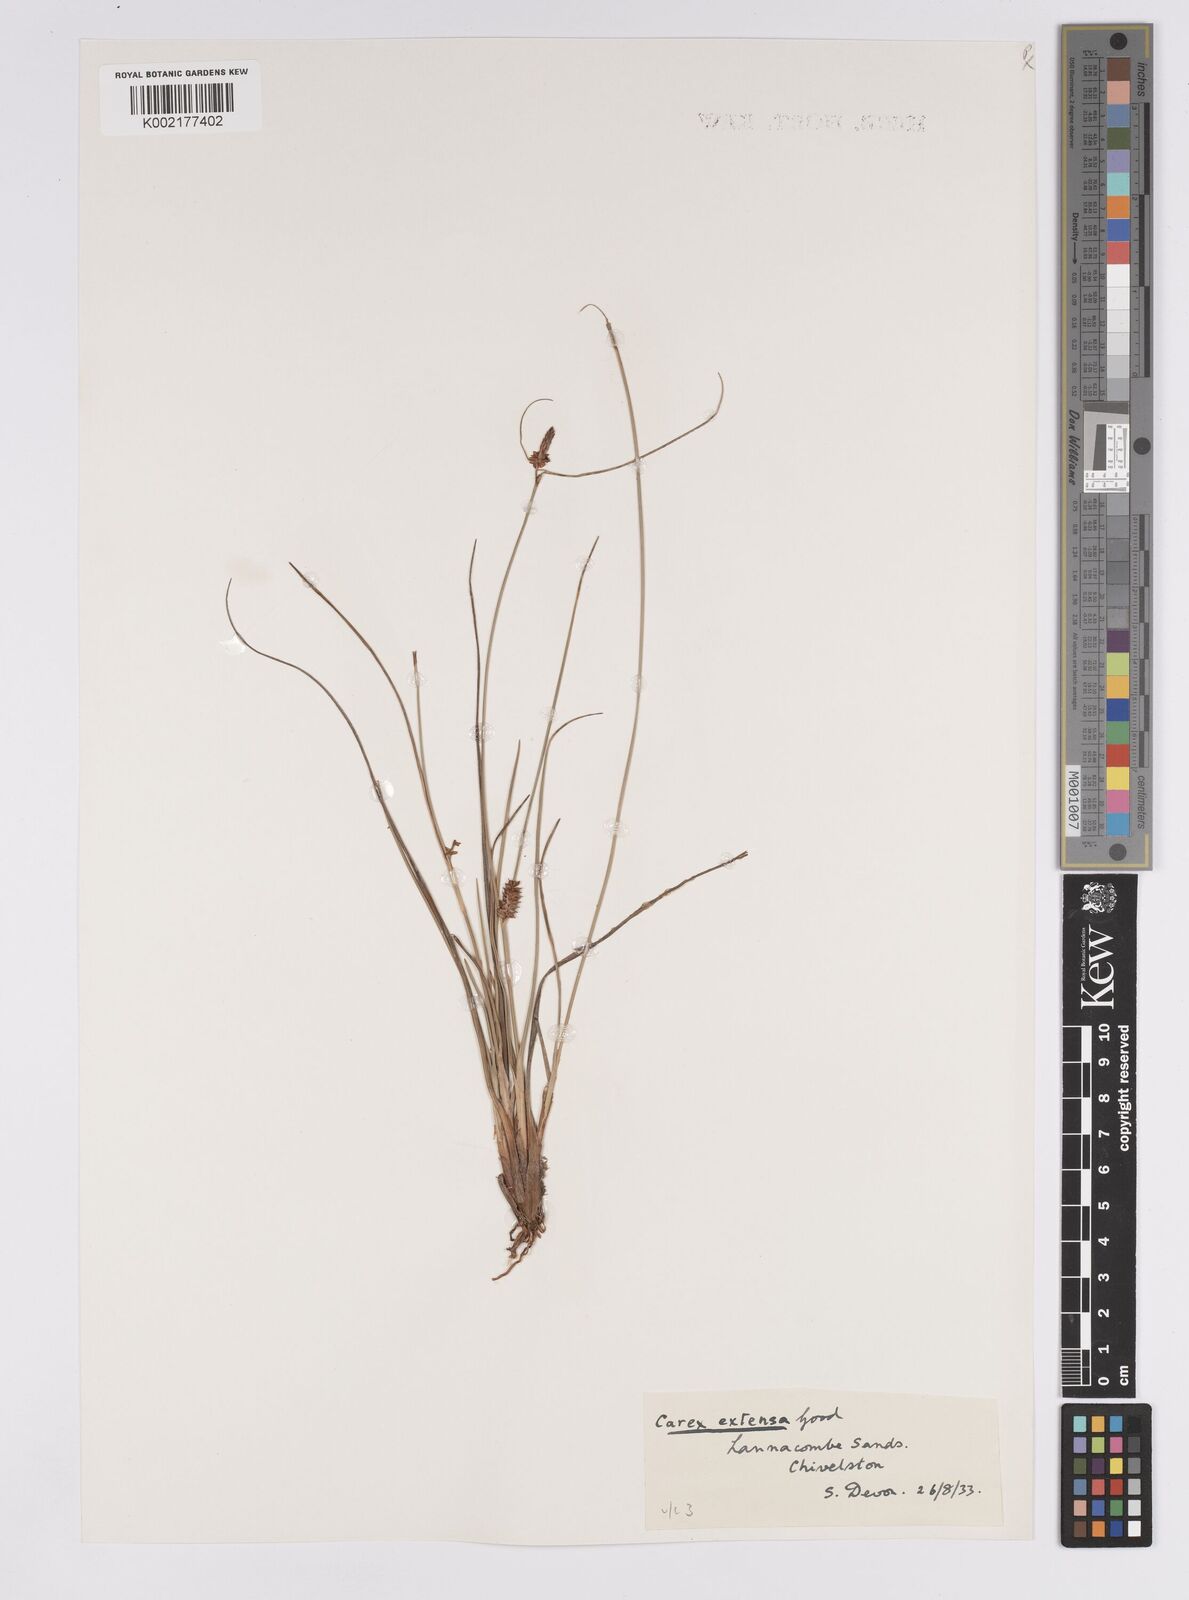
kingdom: Plantae
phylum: Tracheophyta
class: Liliopsida
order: Poales
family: Cyperaceae
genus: Carex
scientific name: Carex extensa
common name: Long-bracted sedge
